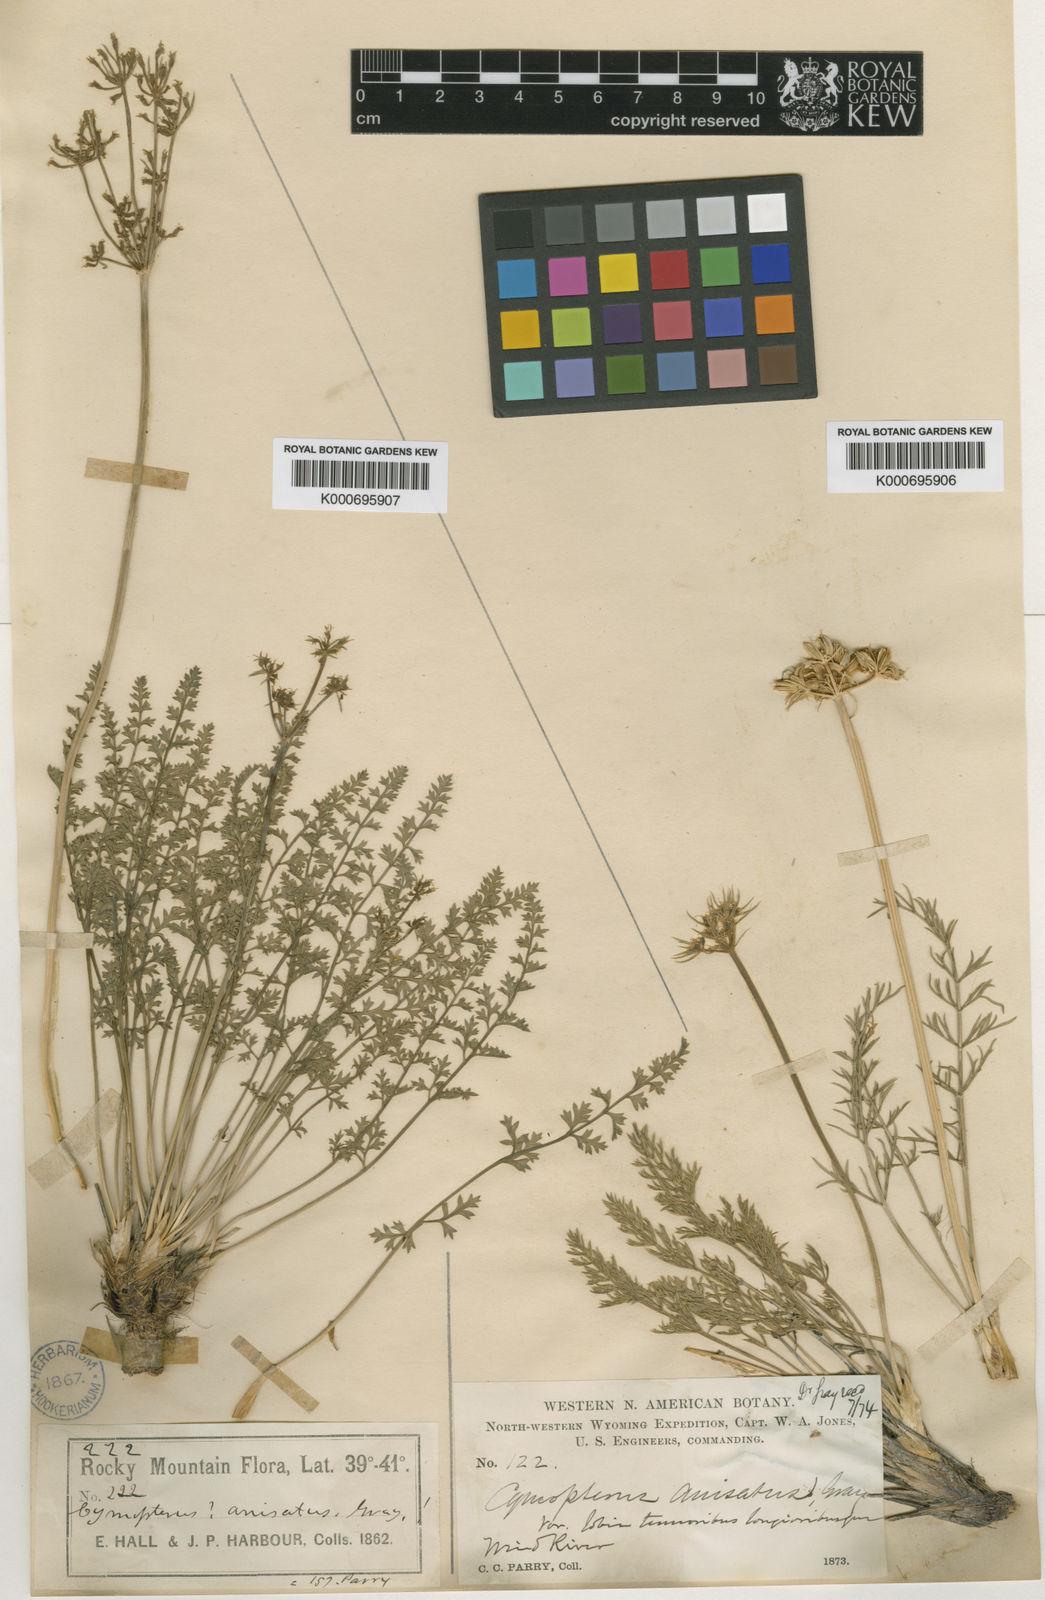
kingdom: Plantae
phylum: Tracheophyta
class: Magnoliopsida
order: Apiales
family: Apiaceae
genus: Cymopterus
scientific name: Cymopterus anisatus
